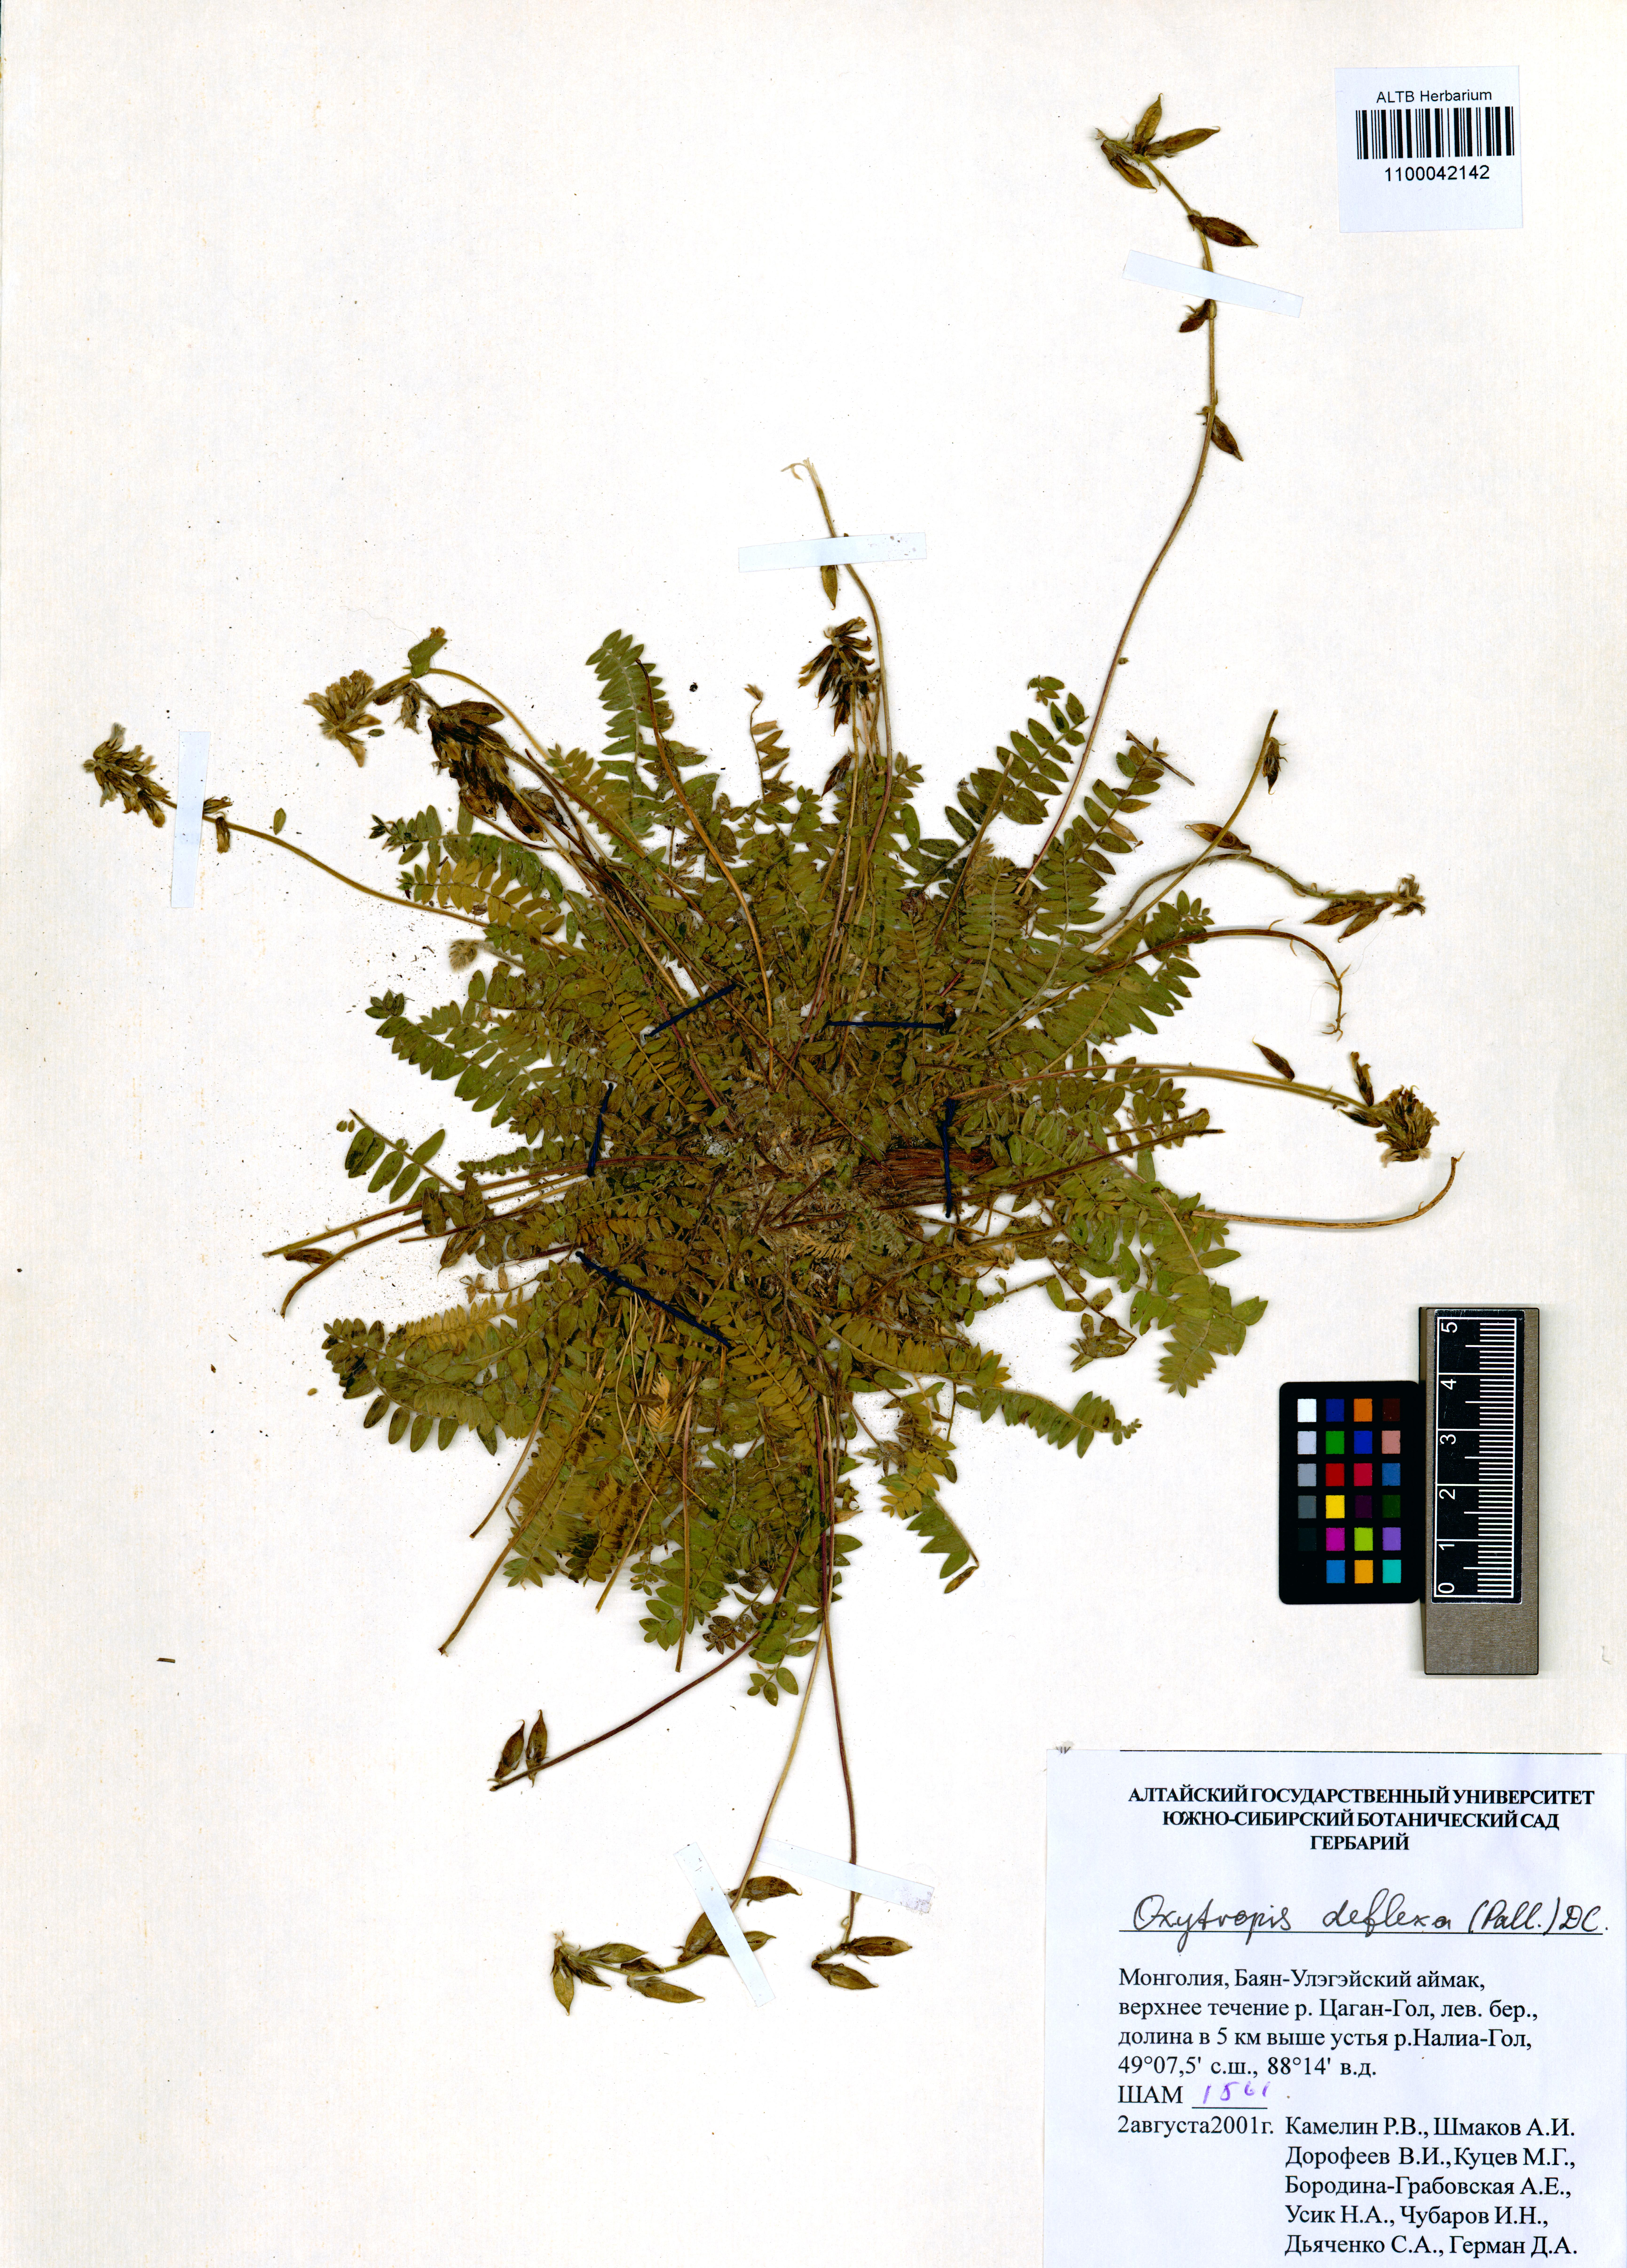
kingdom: Plantae
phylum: Tracheophyta
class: Magnoliopsida
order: Fabales
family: Fabaceae
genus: Oxytropis
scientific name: Oxytropis deflexa
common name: Stemmed oxytrope
